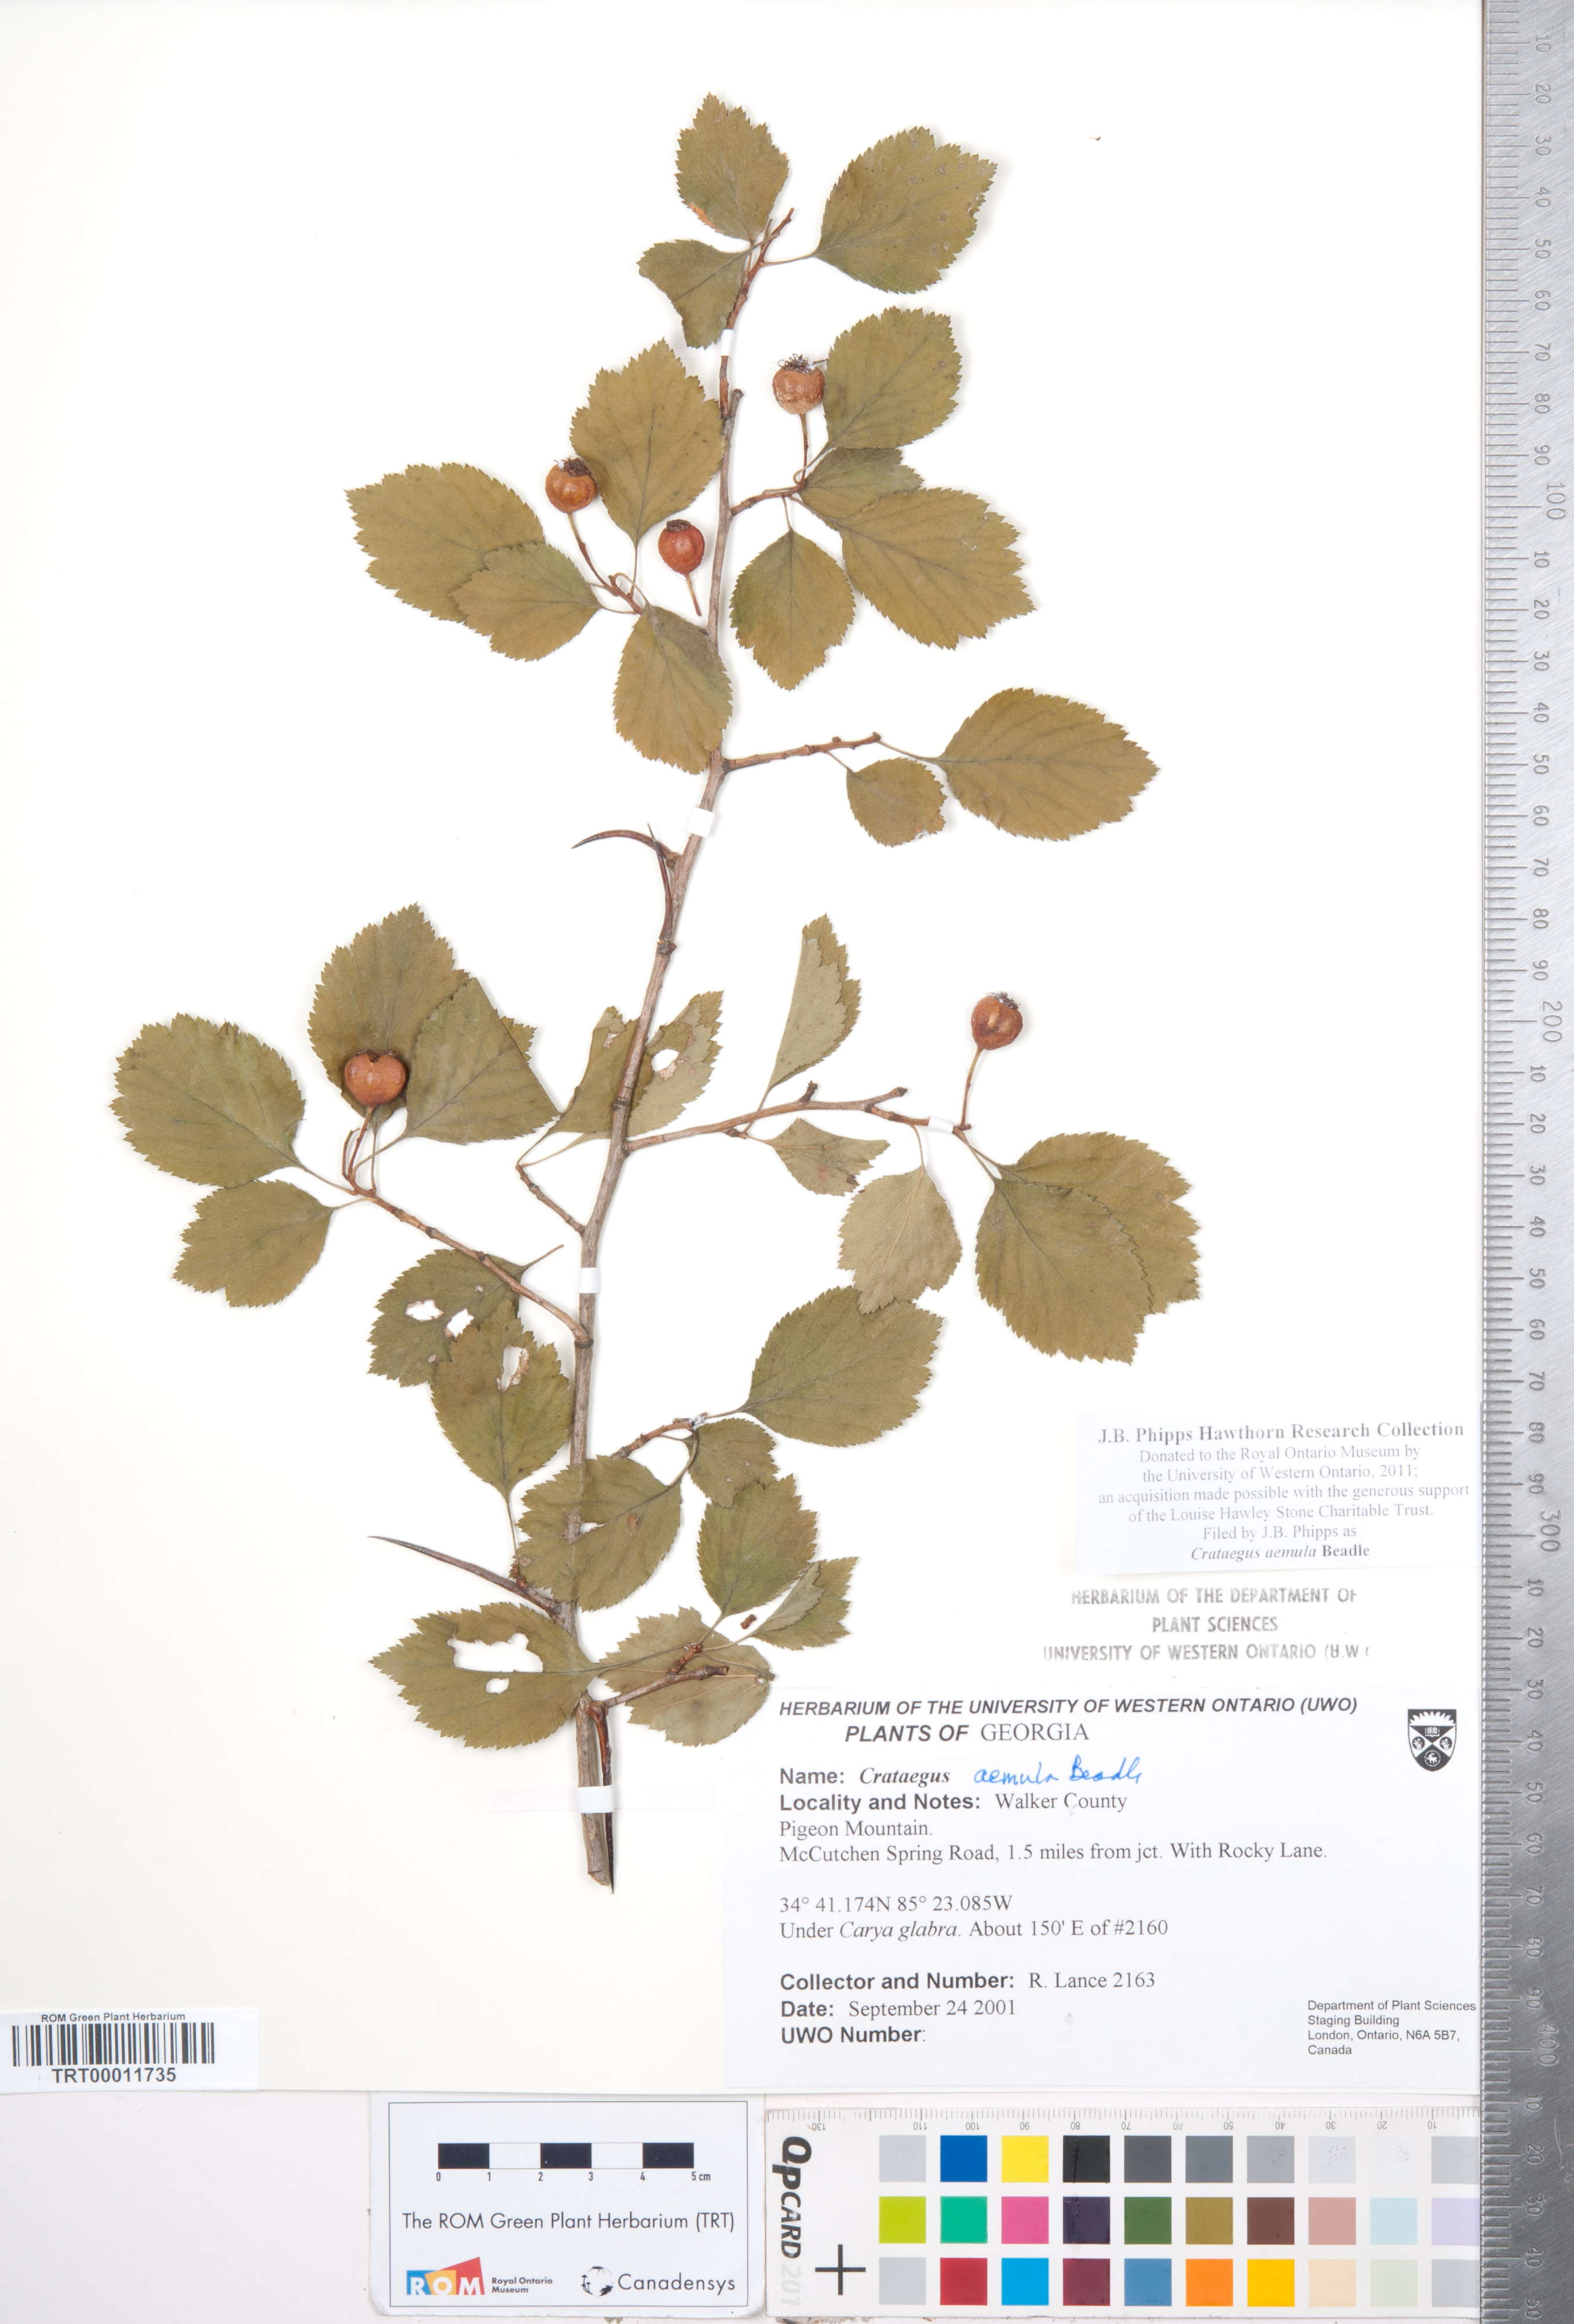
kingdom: Plantae
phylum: Tracheophyta
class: Magnoliopsida
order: Rosales
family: Rosaceae
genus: Crataegus
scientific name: Crataegus iracunda
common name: Stolon-bearing hawthorn
